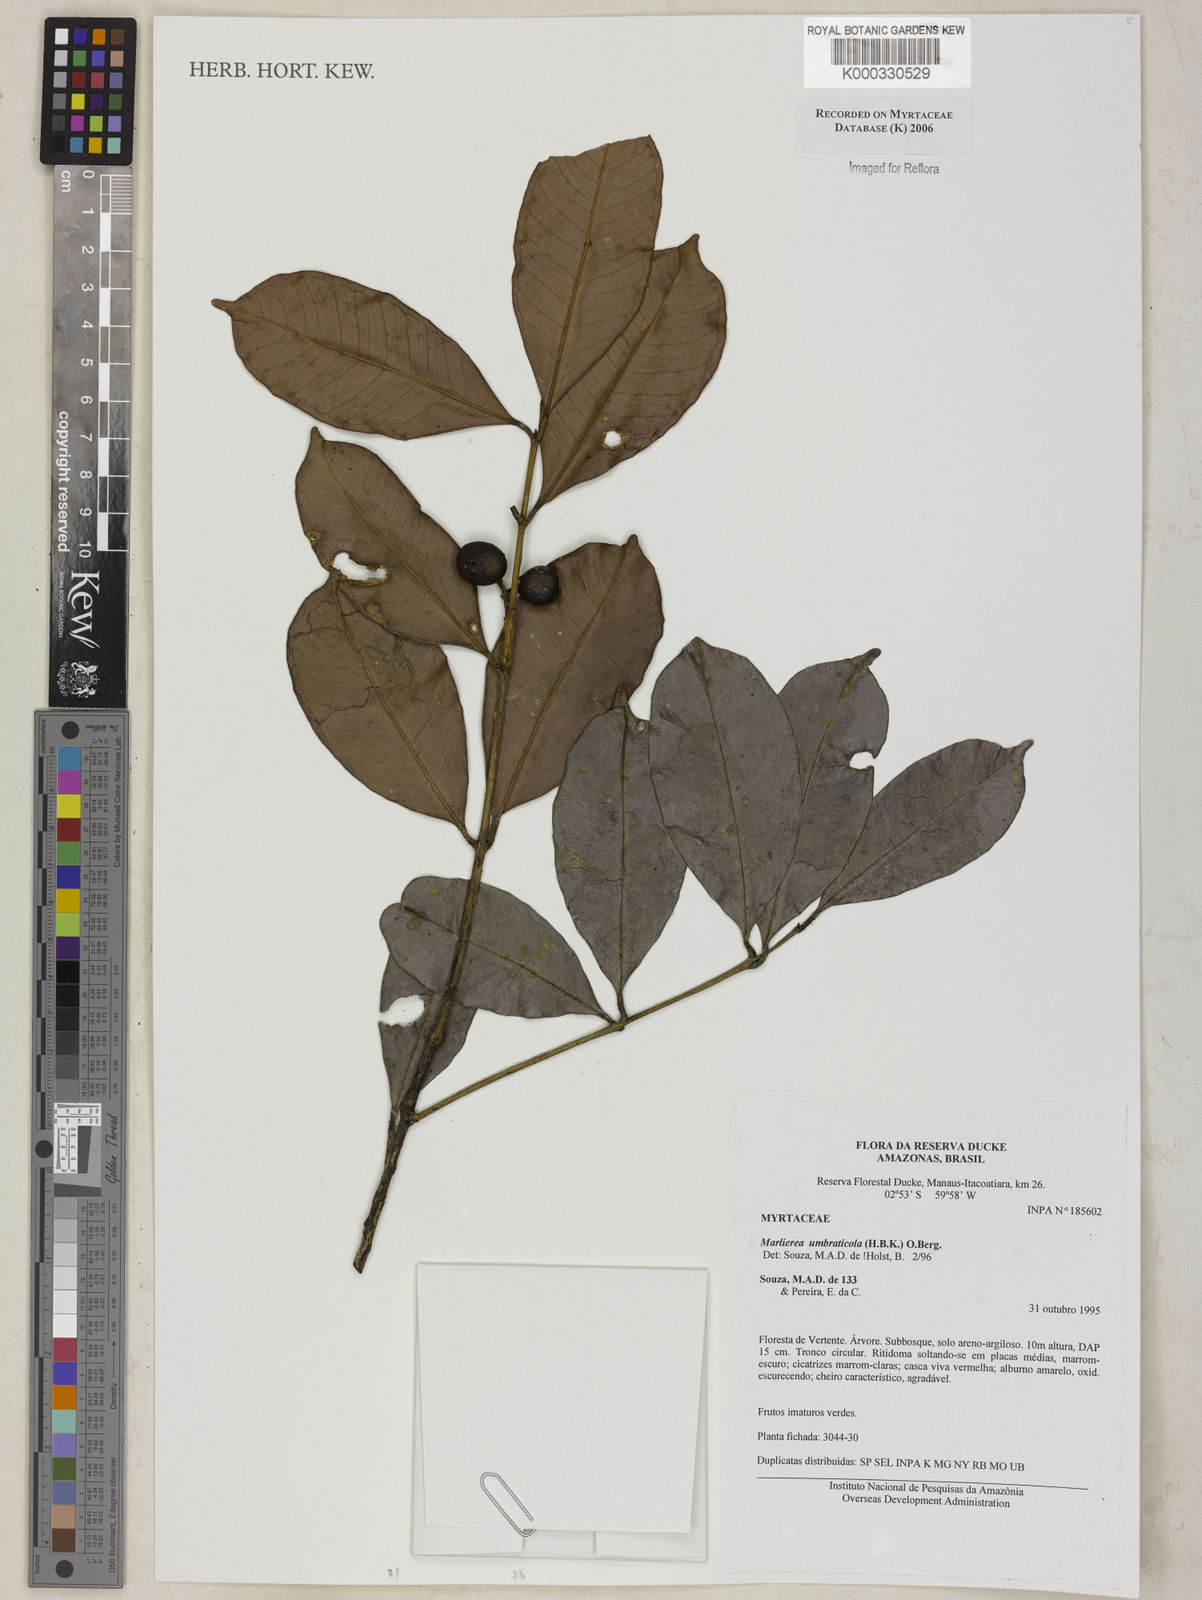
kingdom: Plantae
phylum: Tracheophyta
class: Magnoliopsida
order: Myrtales
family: Myrtaceae
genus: Myrcia
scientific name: Myrcia umbraticola
